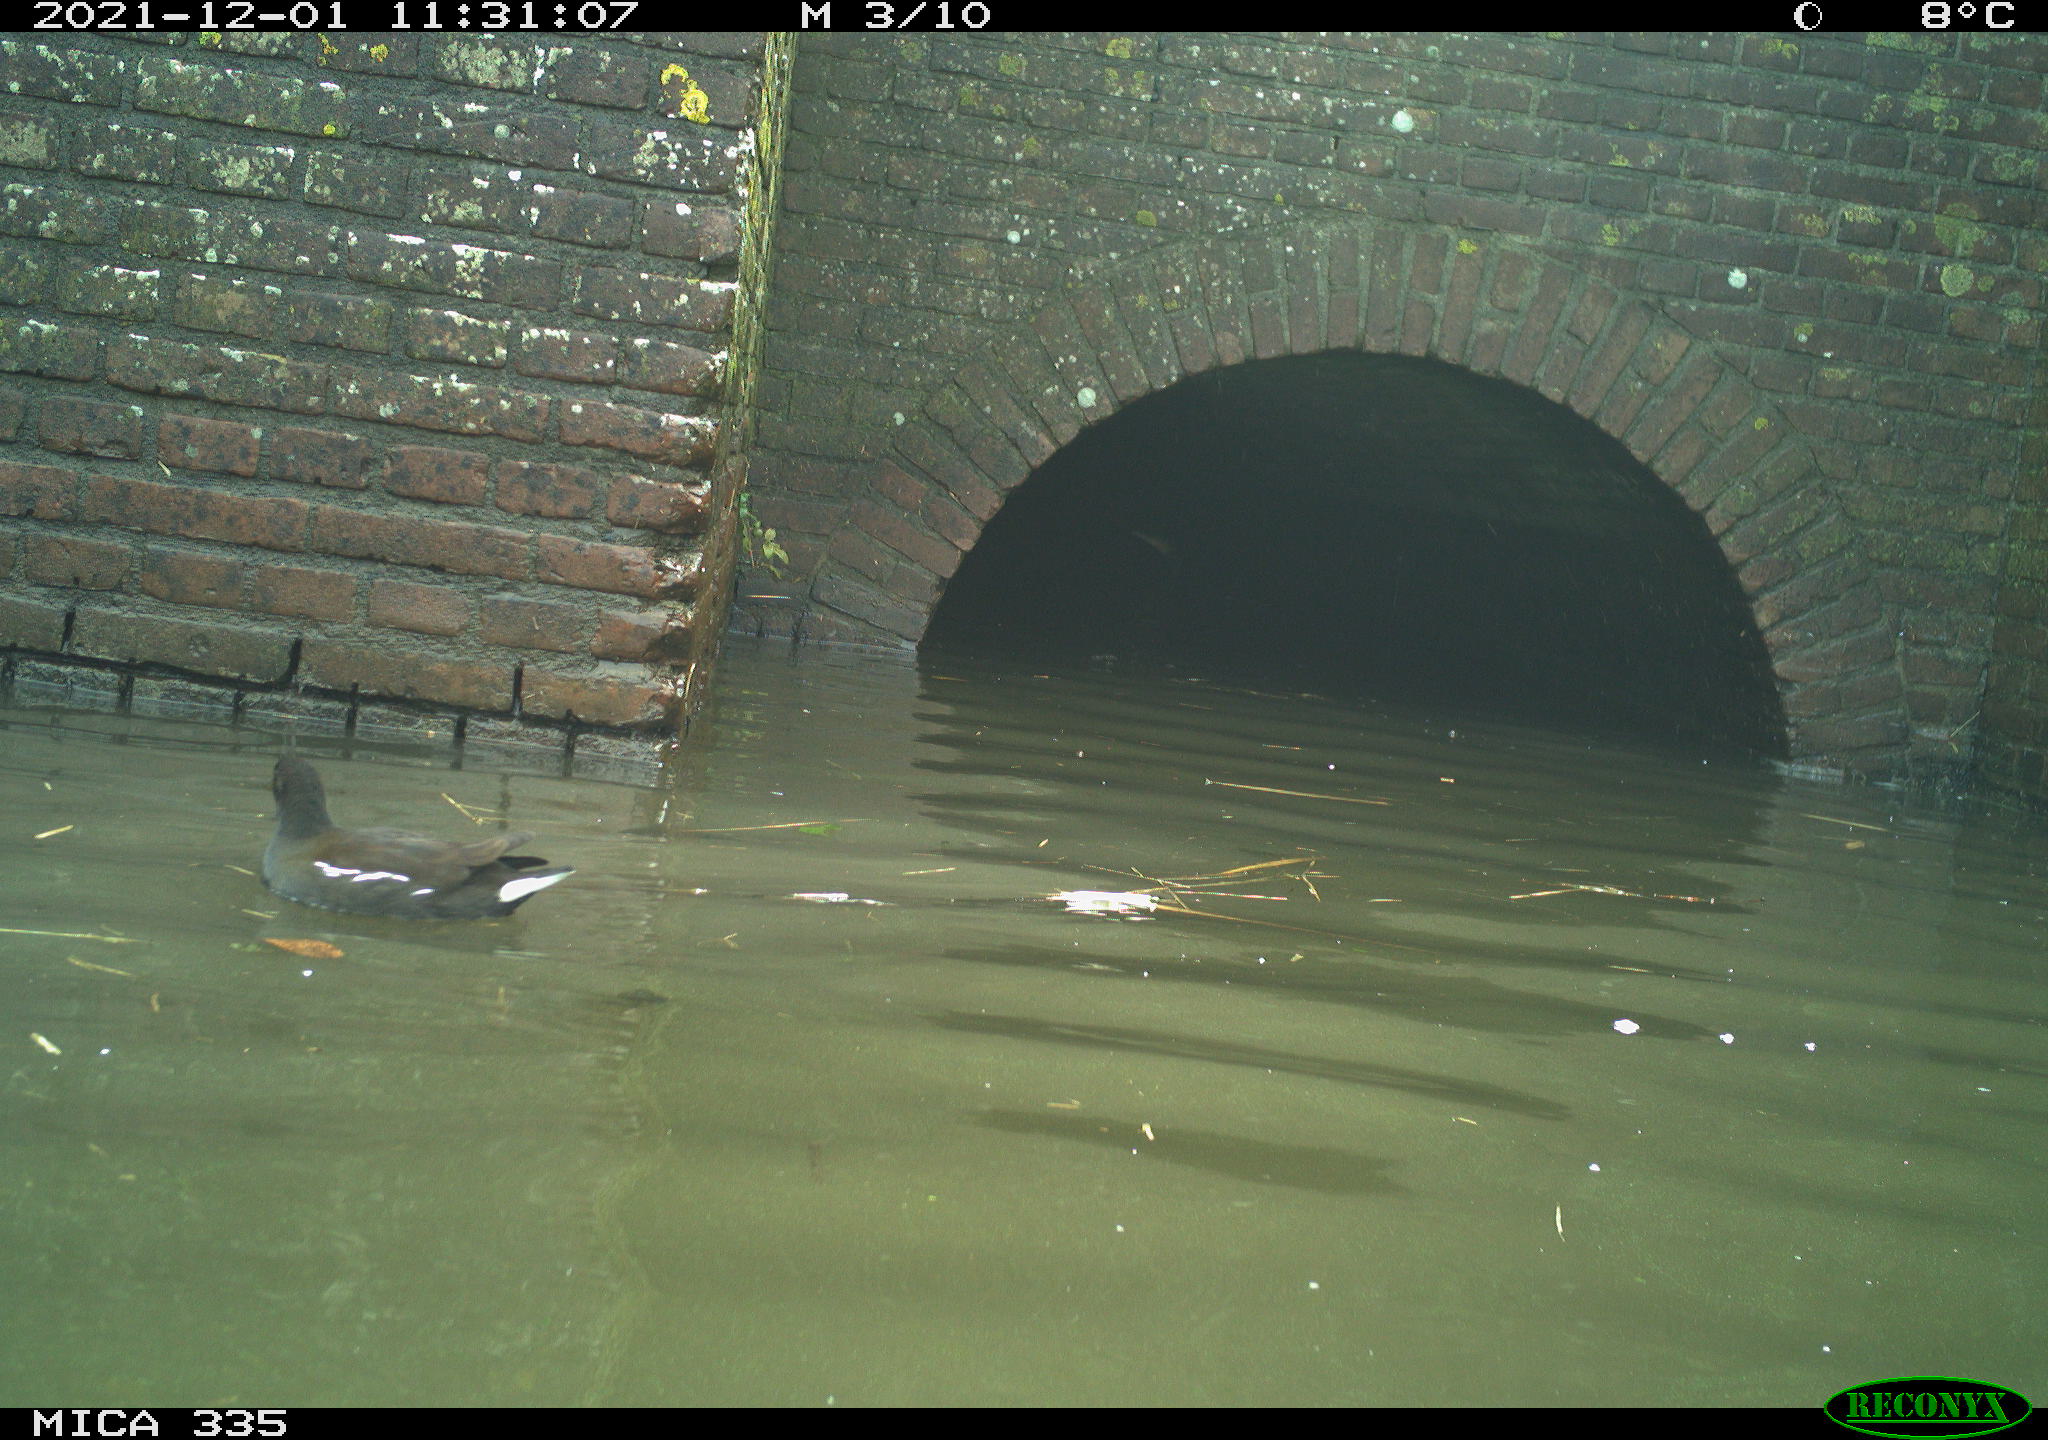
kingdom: Animalia
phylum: Chordata
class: Aves
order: Anseriformes
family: Anatidae
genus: Anas
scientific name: Anas platyrhynchos
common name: Mallard
